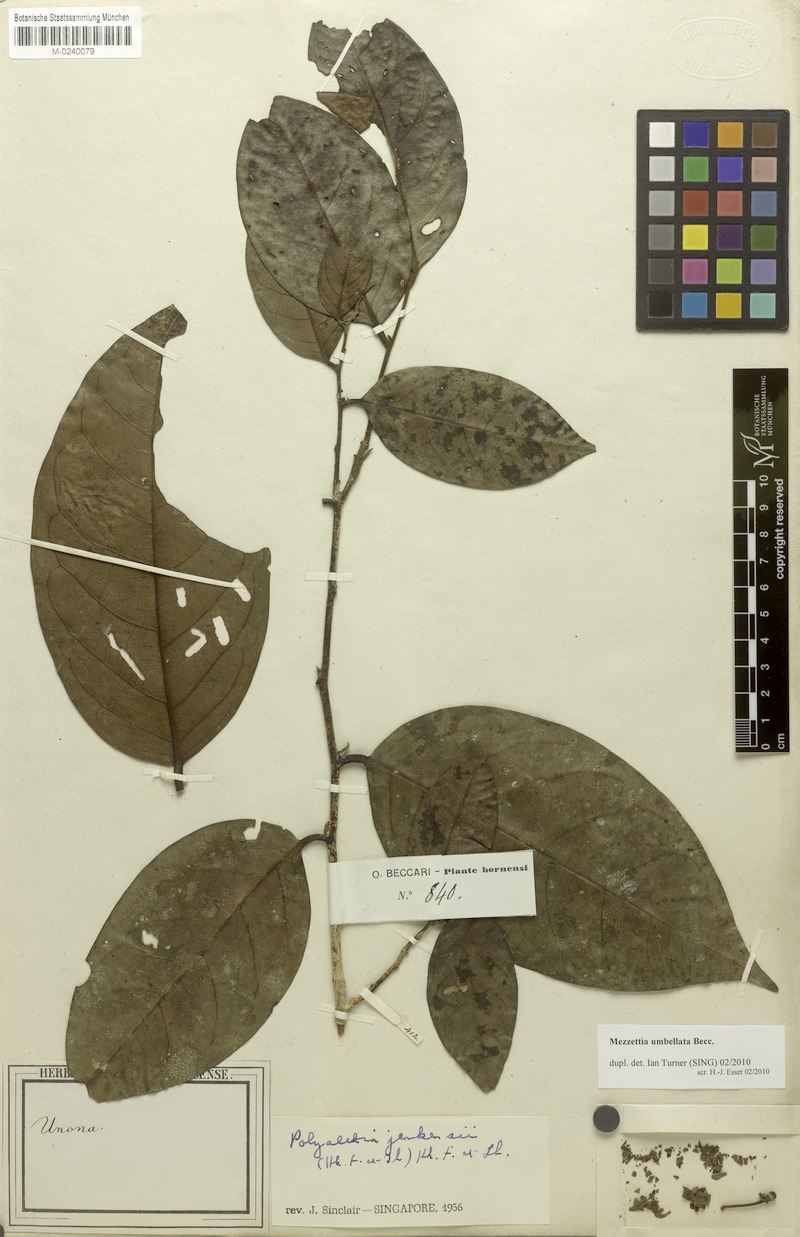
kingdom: Plantae
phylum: Tracheophyta
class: Magnoliopsida
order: Magnoliales
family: Annonaceae
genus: Mezzettia
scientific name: Mezzettia umbellata
